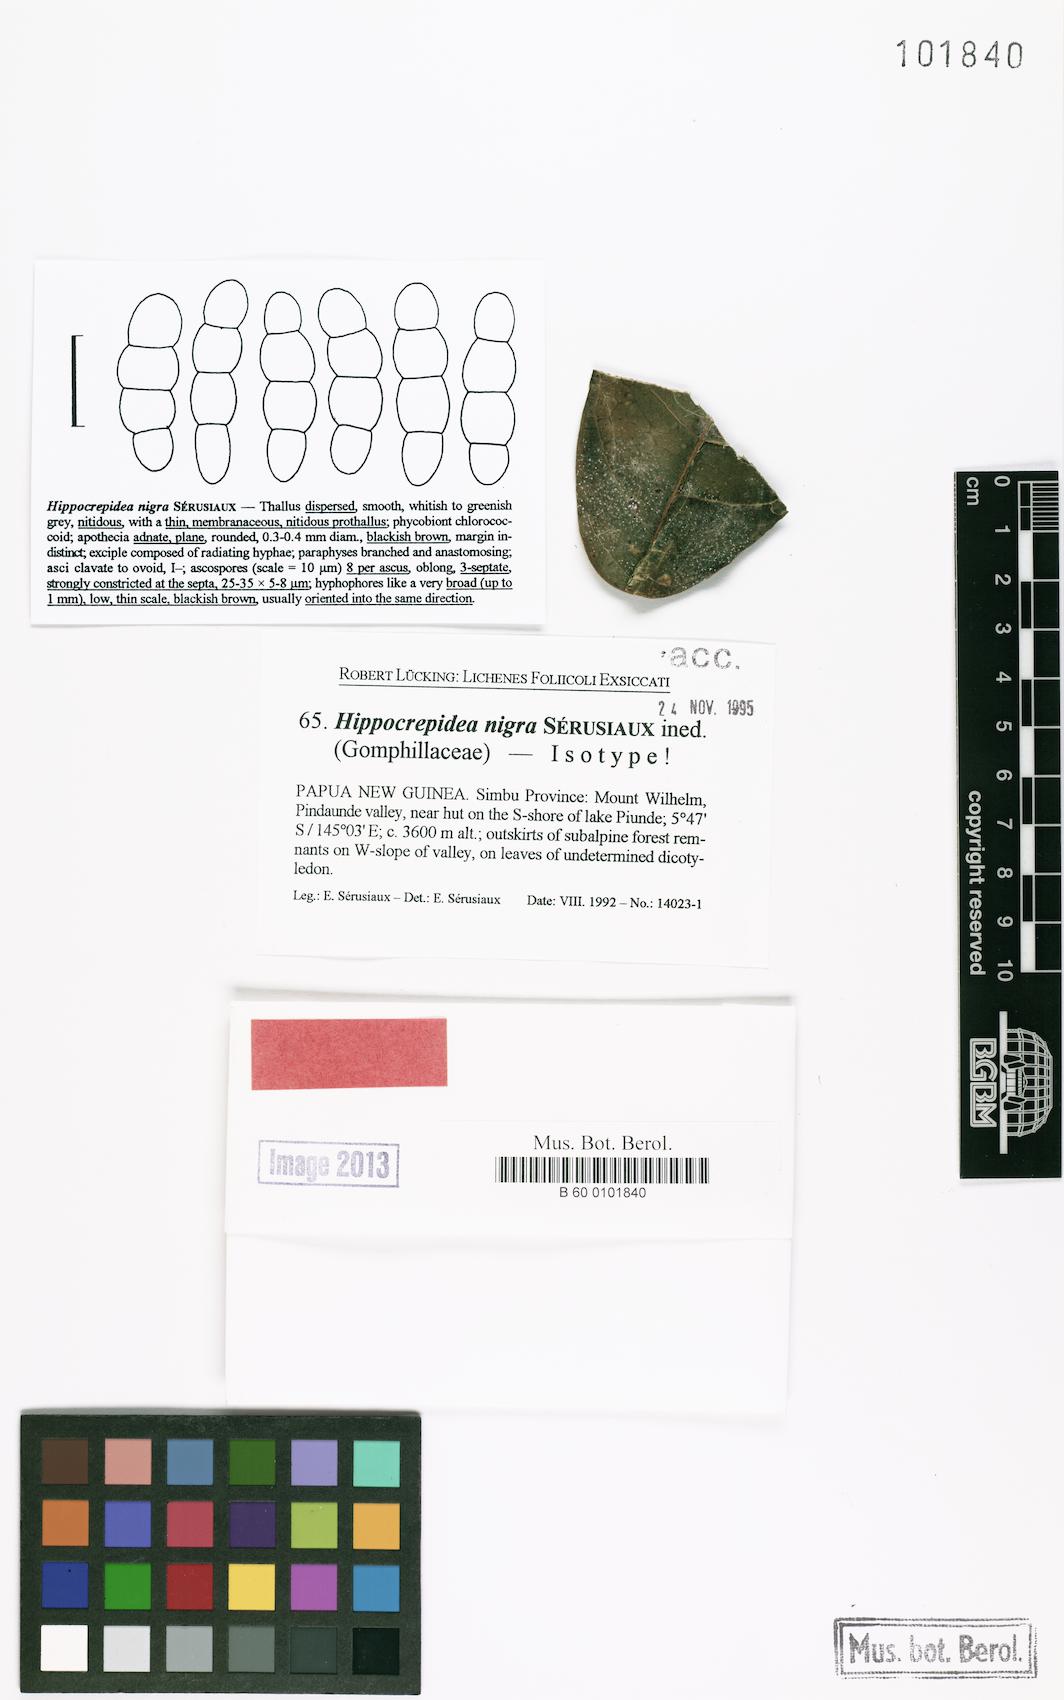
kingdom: Fungi
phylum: Ascomycota
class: Lecanoromycetes
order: Ostropales
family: Gomphillaceae
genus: Hippocrepidea
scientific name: Hippocrepidea nigra
